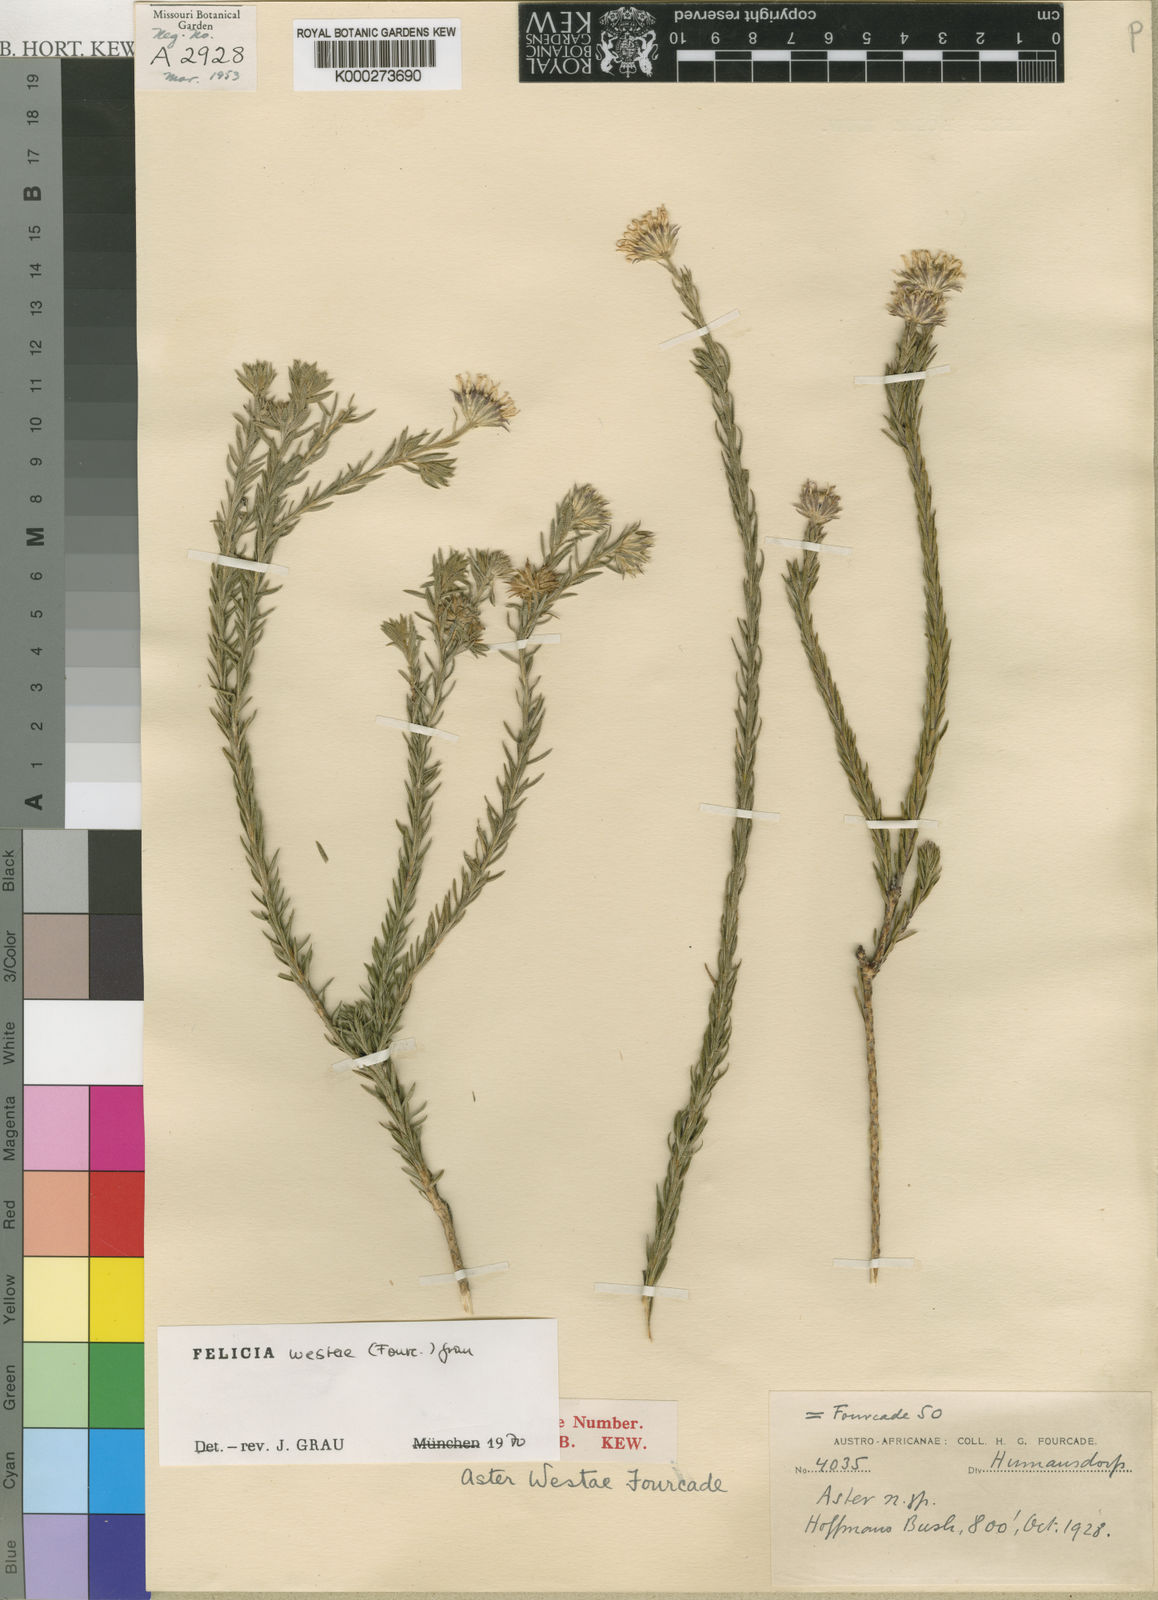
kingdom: Plantae
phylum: Tracheophyta
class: Magnoliopsida
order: Asterales
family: Asteraceae
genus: Felicia
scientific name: Felicia westiae
